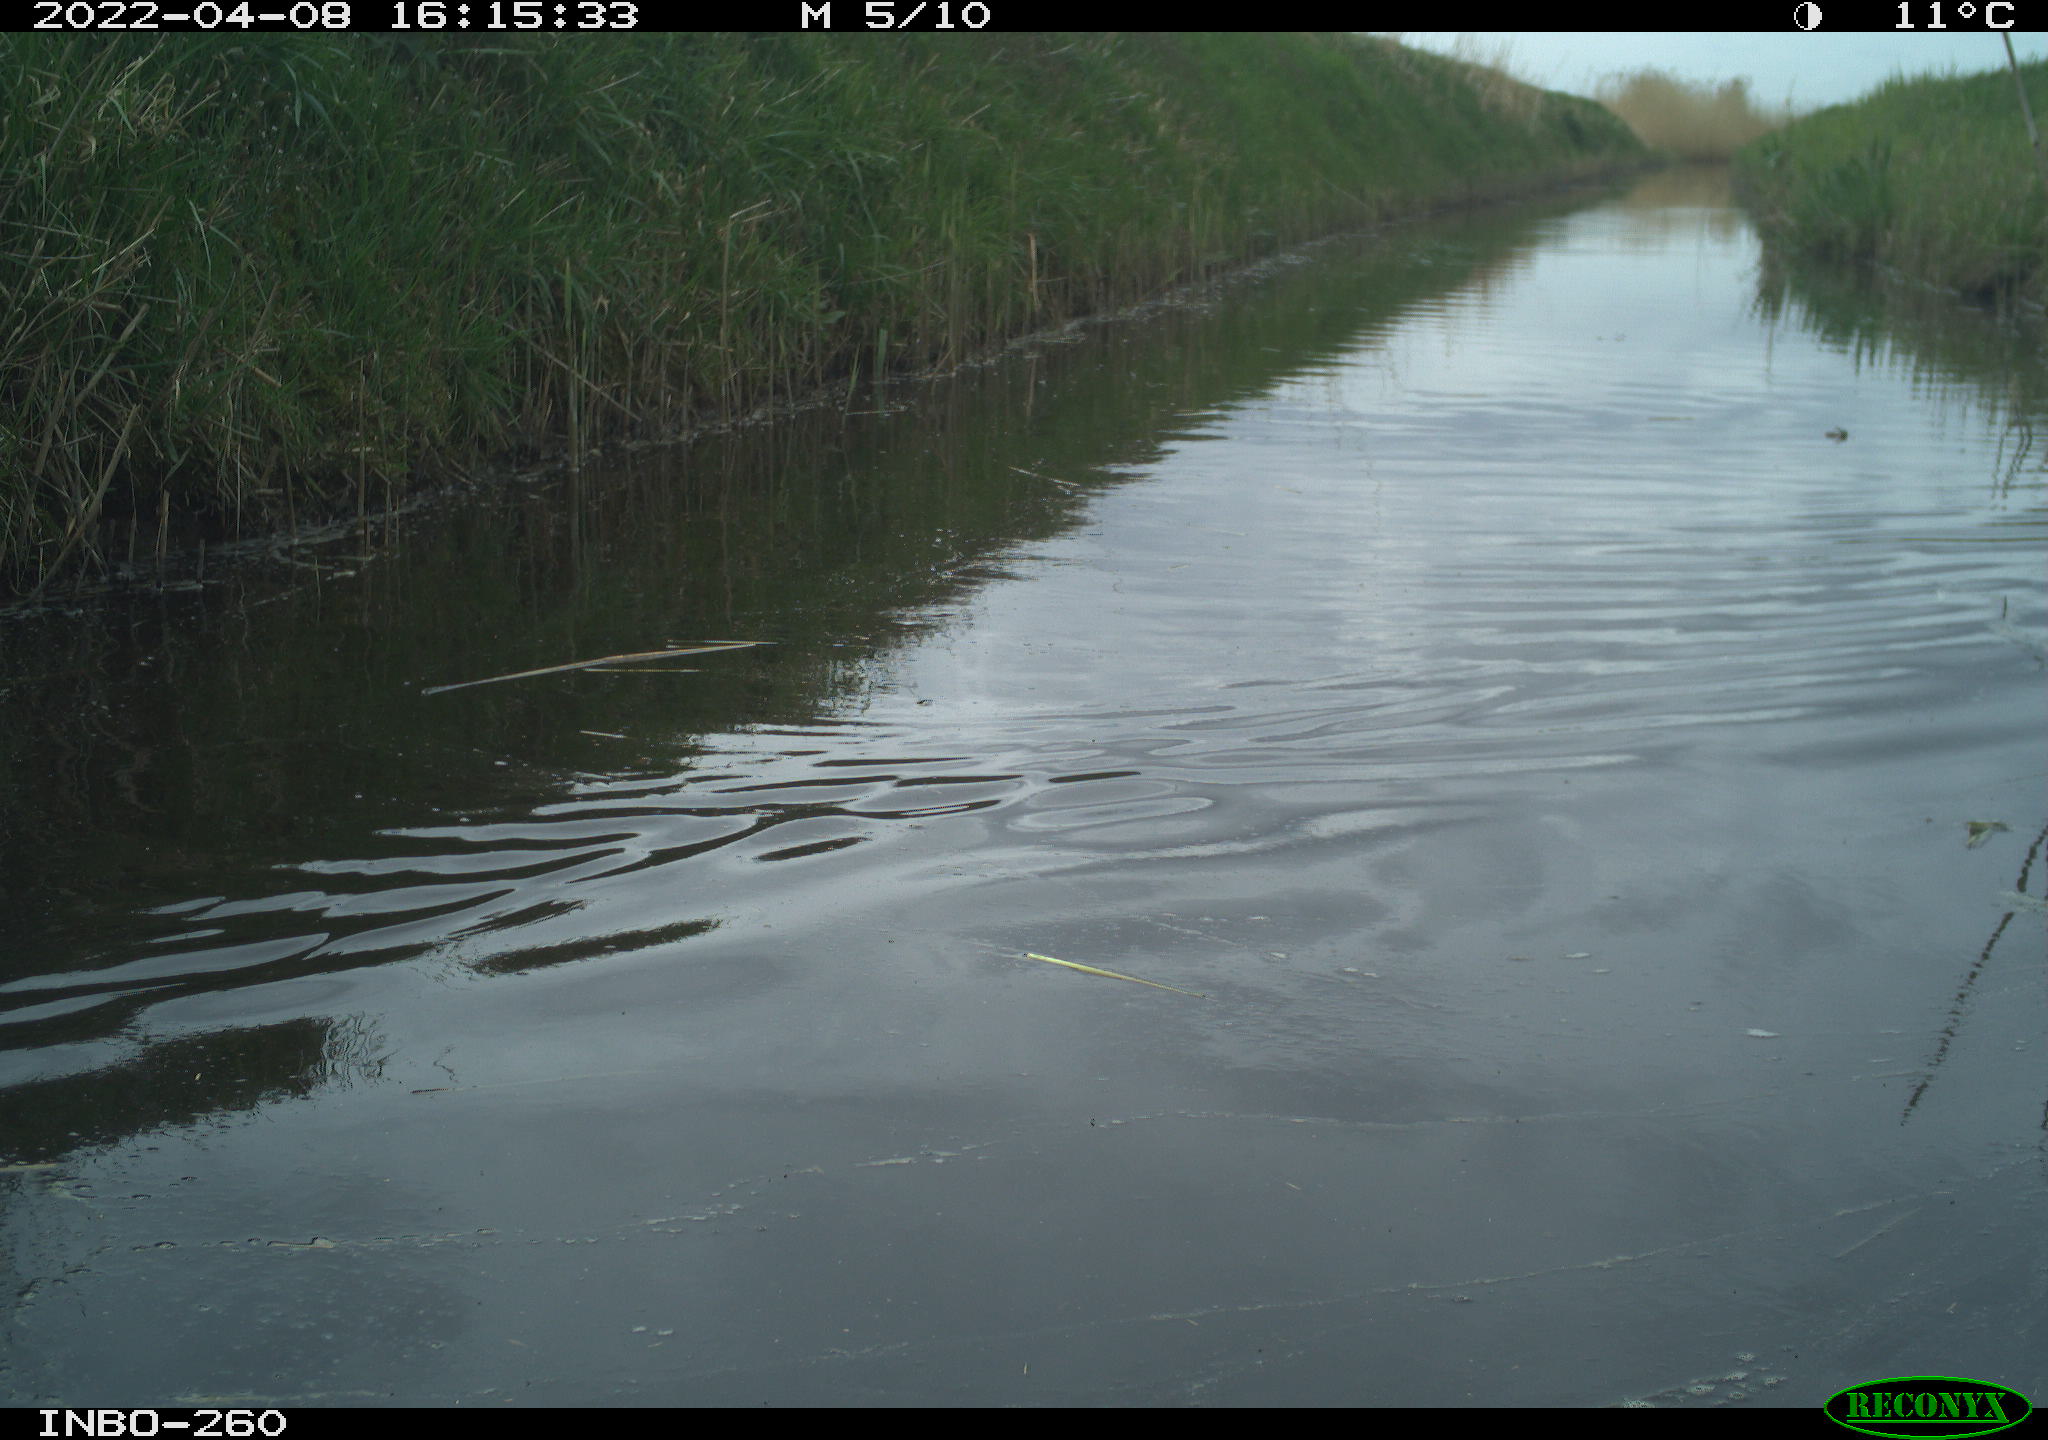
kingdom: Animalia
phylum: Chordata
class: Aves
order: Gruiformes
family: Rallidae
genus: Fulica
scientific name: Fulica atra
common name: Eurasian coot
